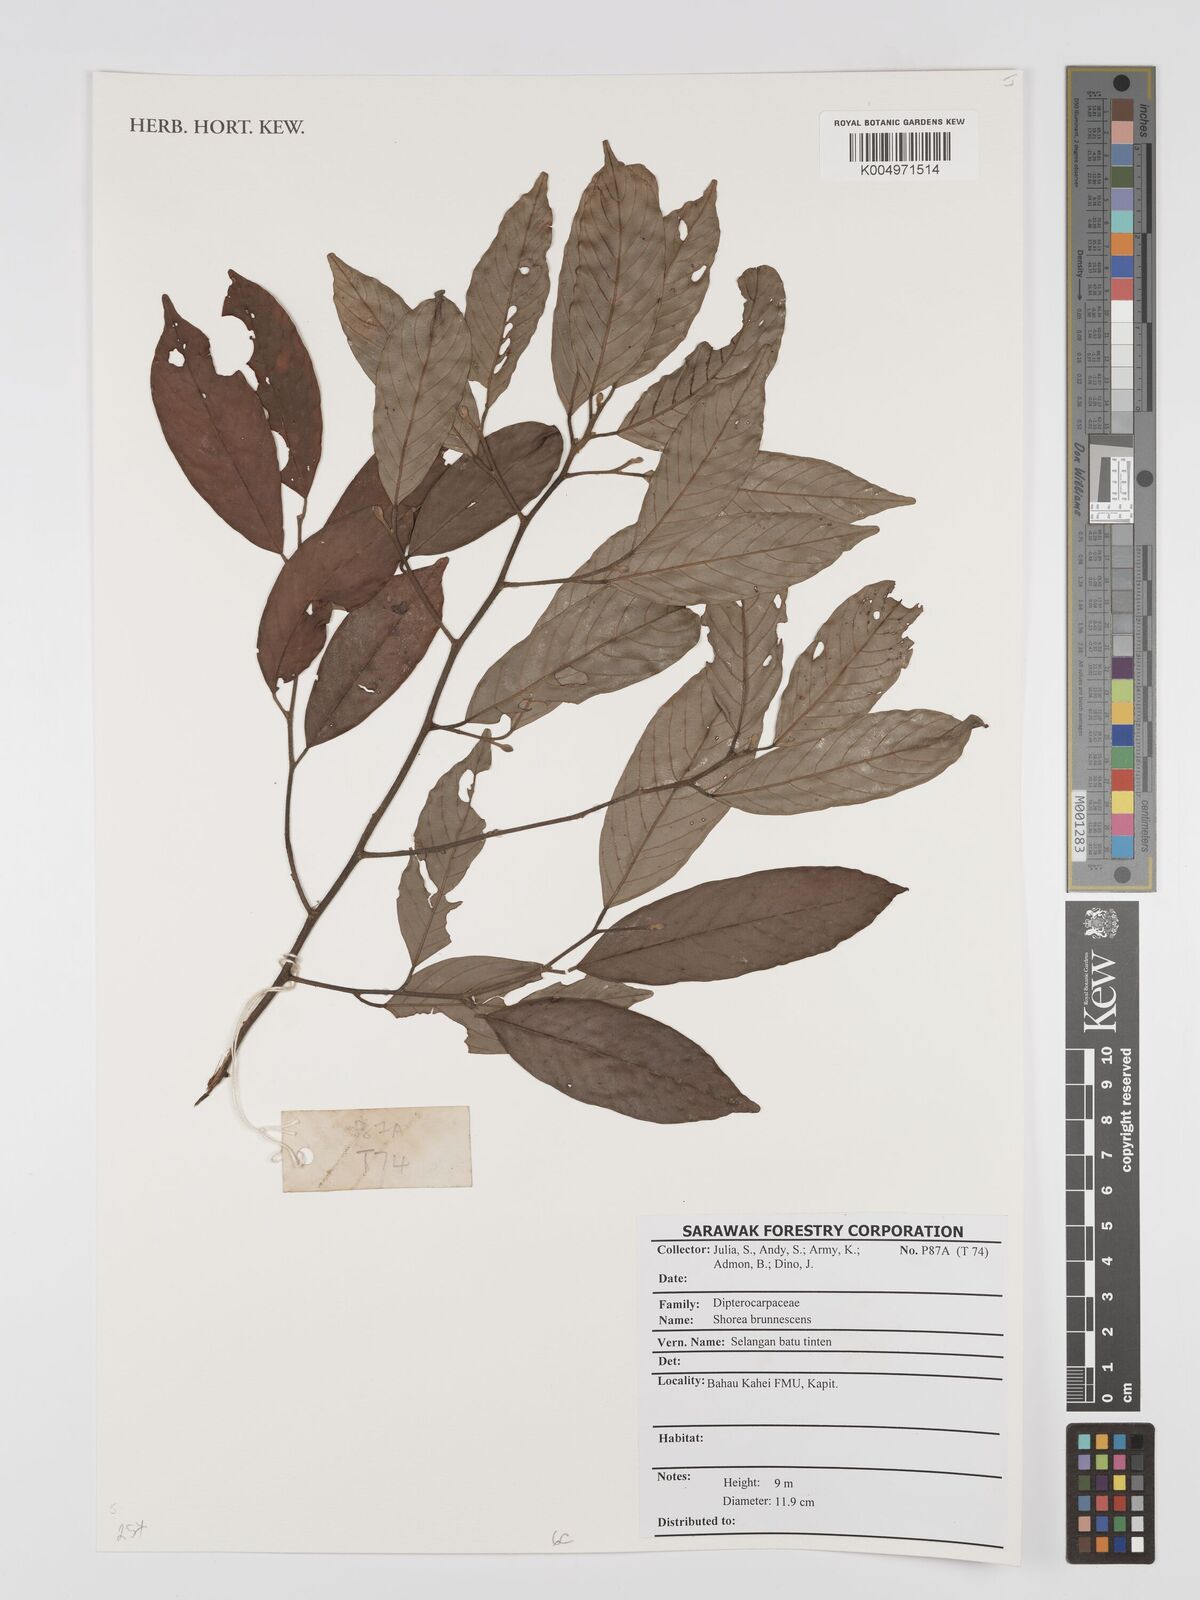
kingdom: Plantae
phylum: Tracheophyta
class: Magnoliopsida
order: Malvales
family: Dipterocarpaceae
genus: Shorea
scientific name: Shorea brunnescens
